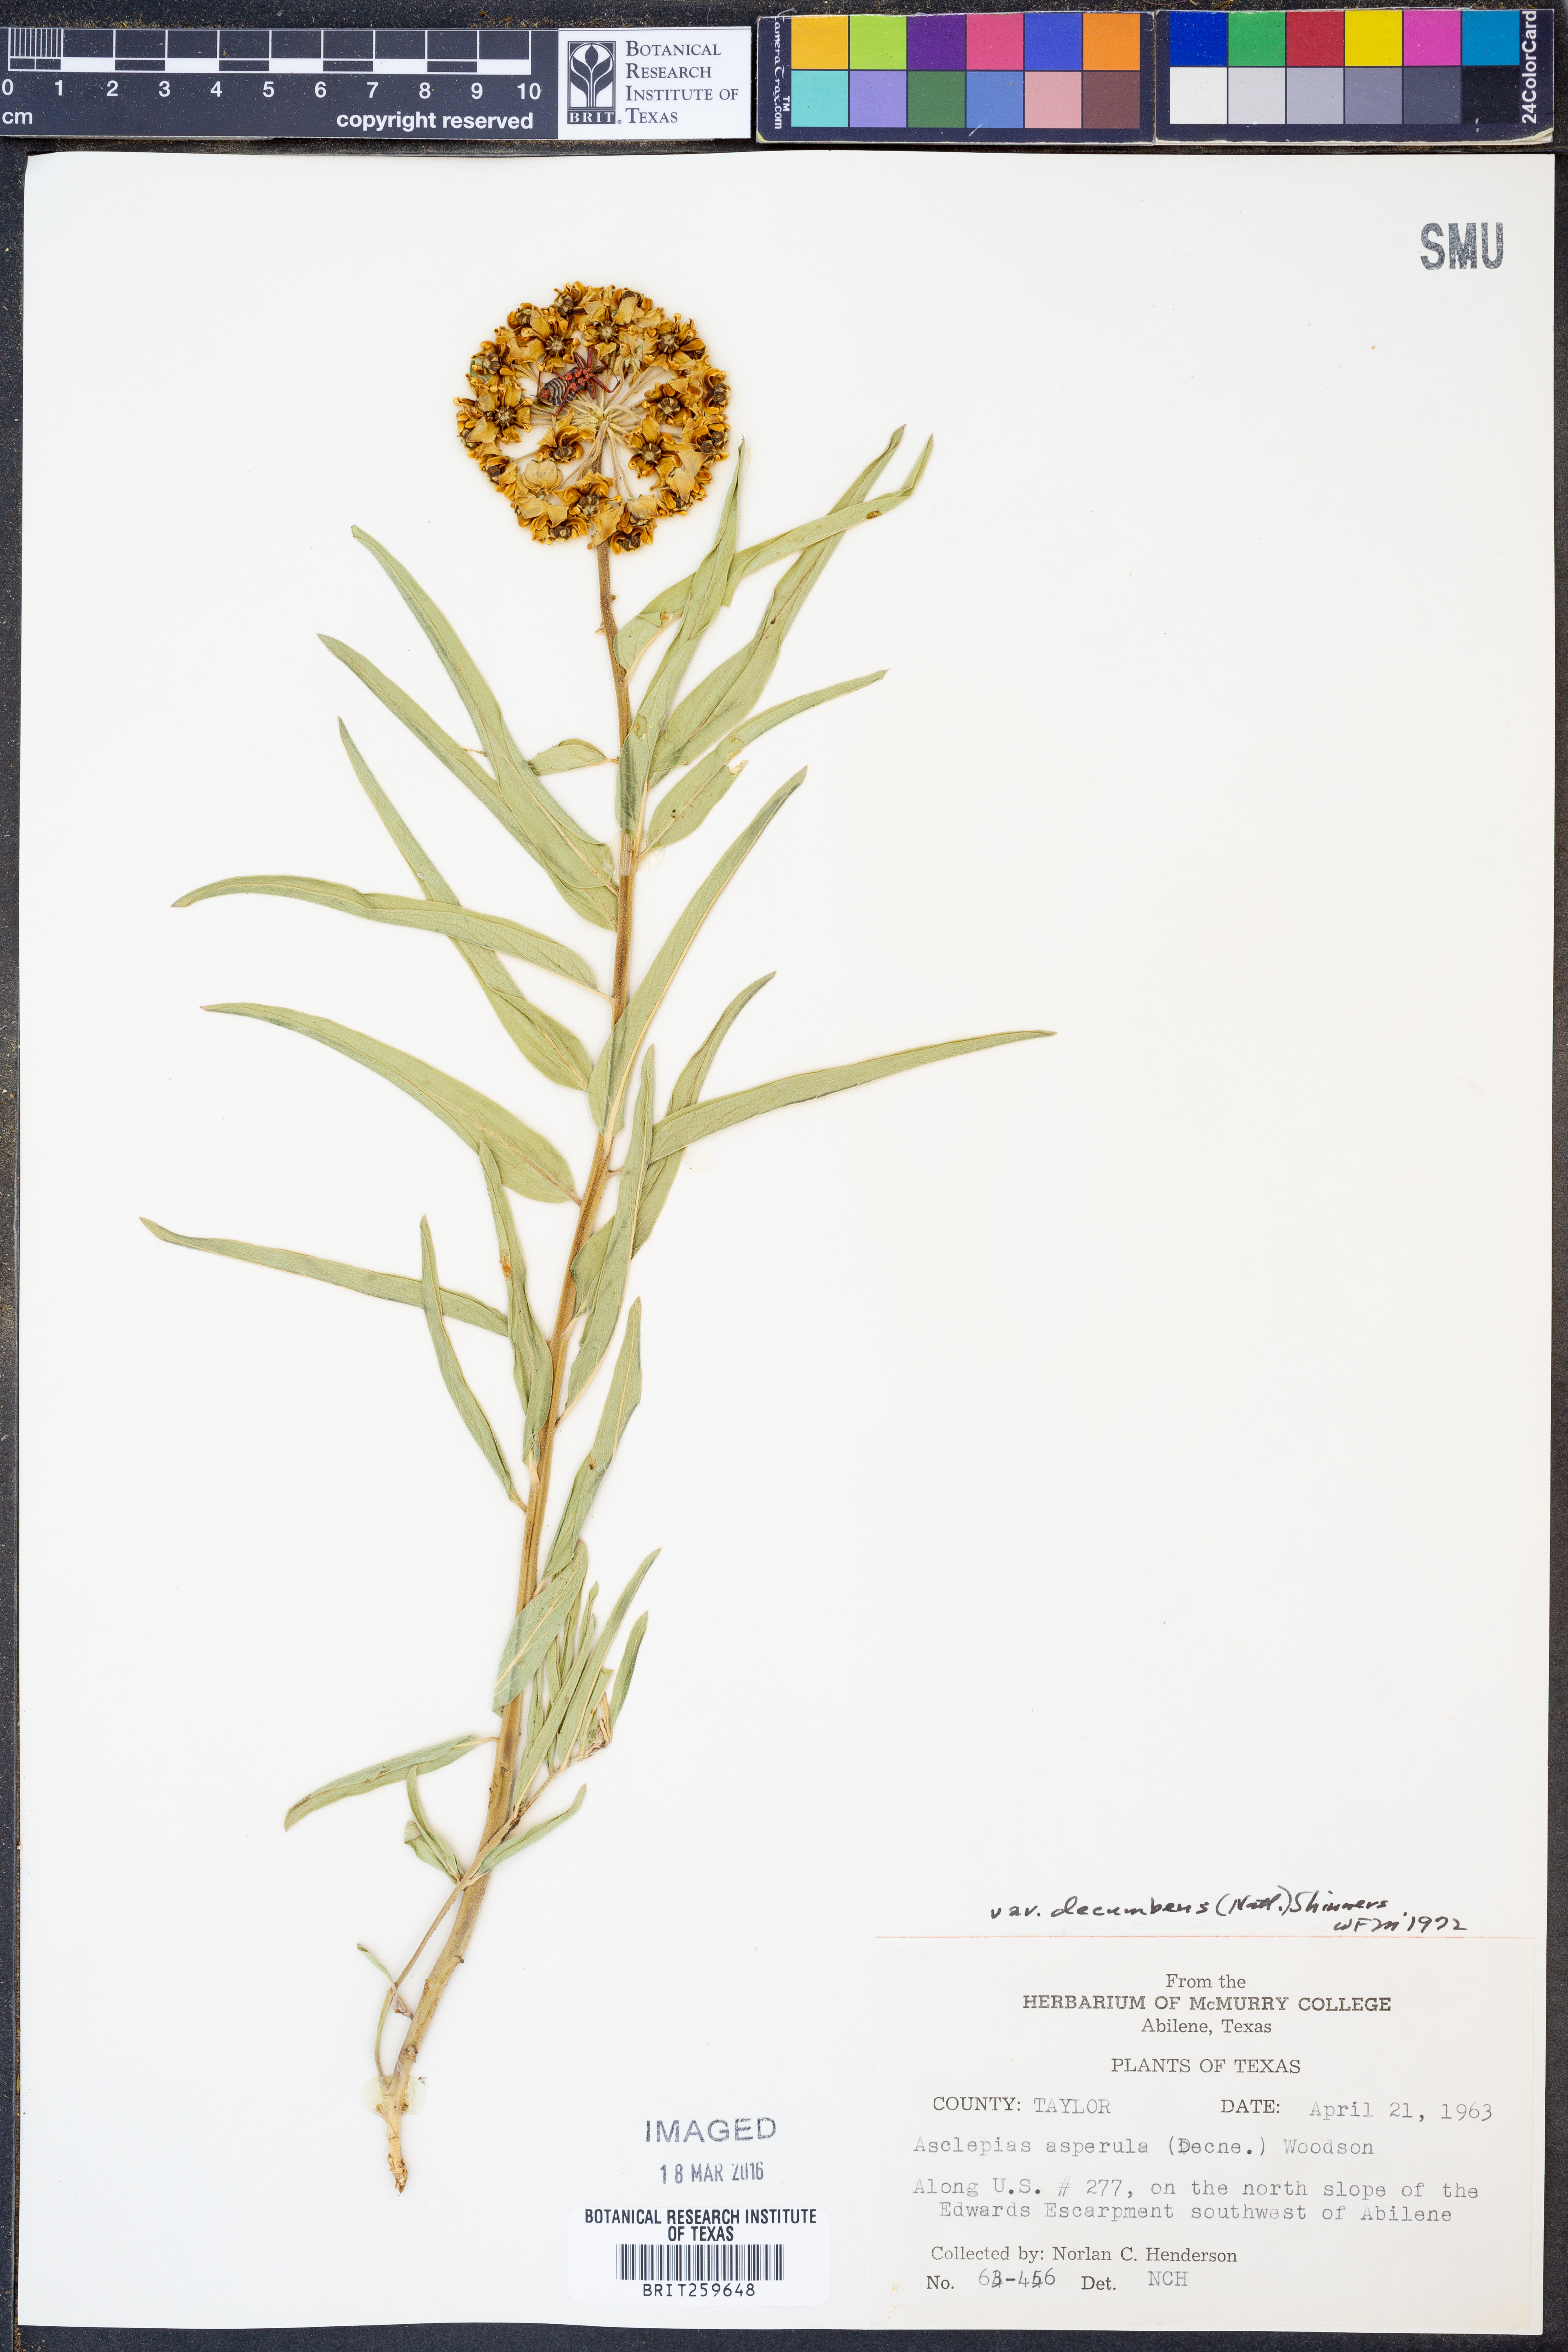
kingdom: Plantae
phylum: Tracheophyta
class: Magnoliopsida
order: Gentianales
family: Apocynaceae
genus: Asclepias
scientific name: Asclepias asperula
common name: Antelope horns
